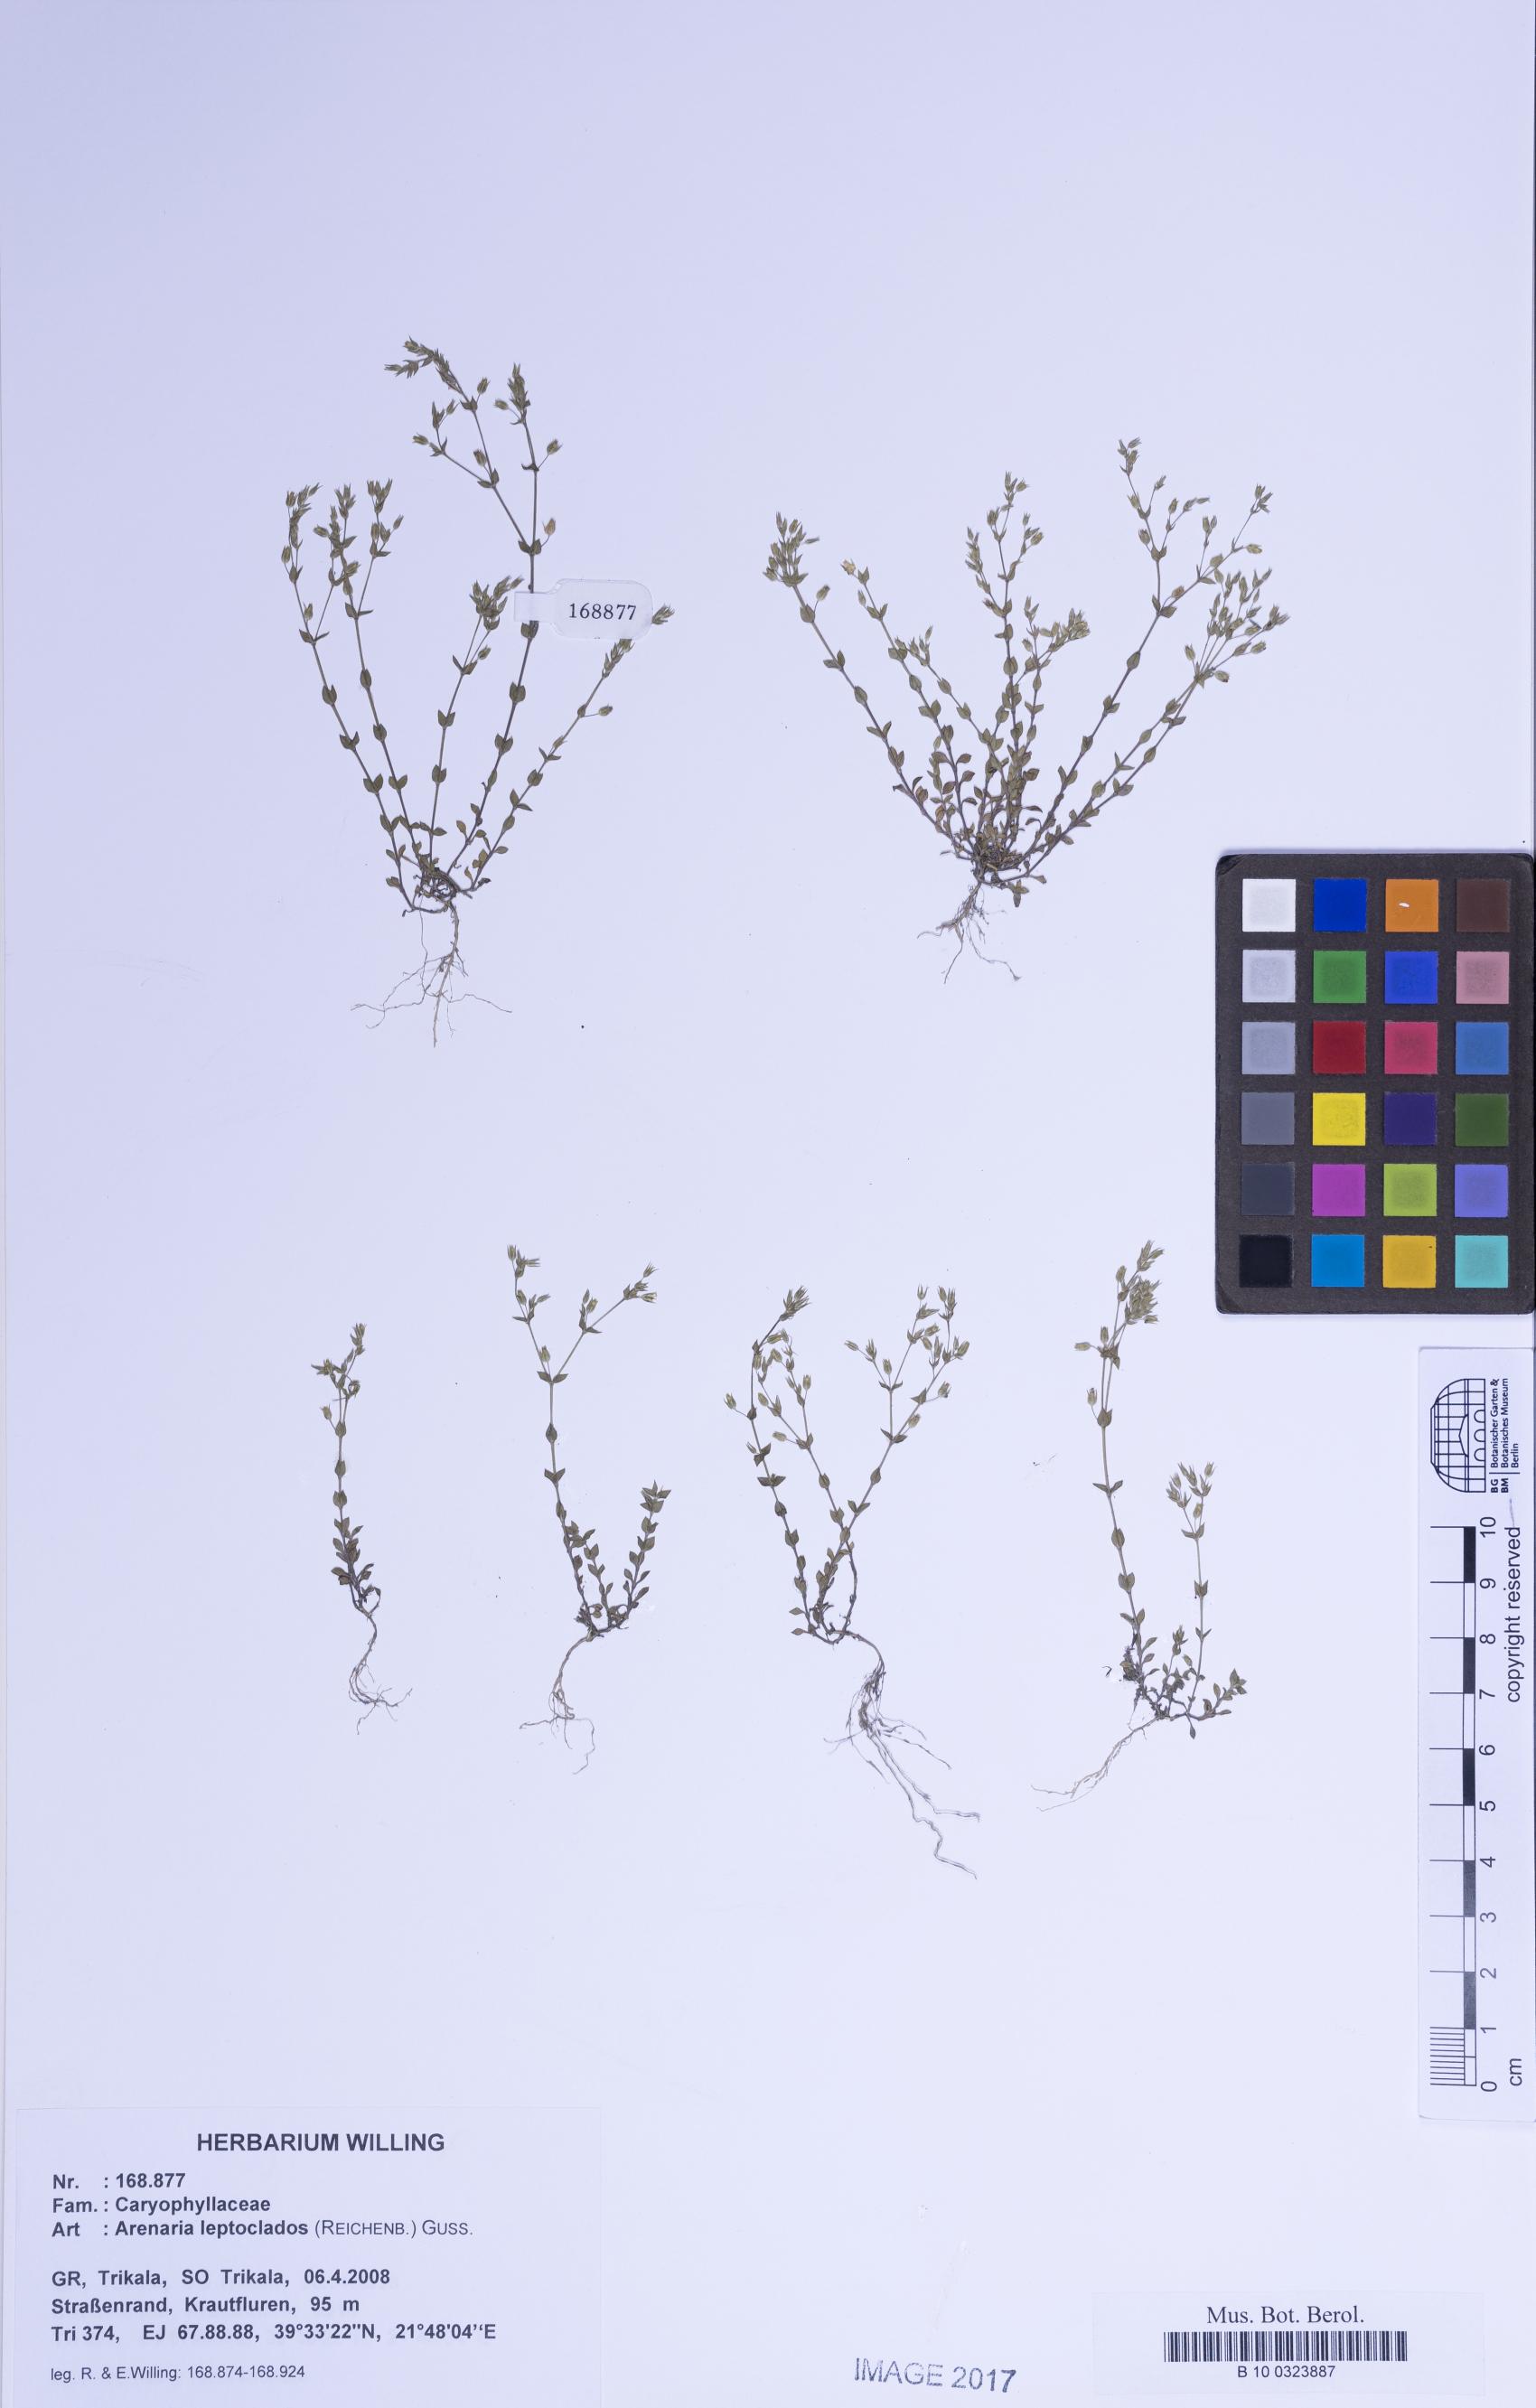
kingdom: Plantae
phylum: Tracheophyta
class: Magnoliopsida
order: Caryophyllales
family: Caryophyllaceae
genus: Arenaria
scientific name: Arenaria leptoclados
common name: Thyme-leaved sandwort
